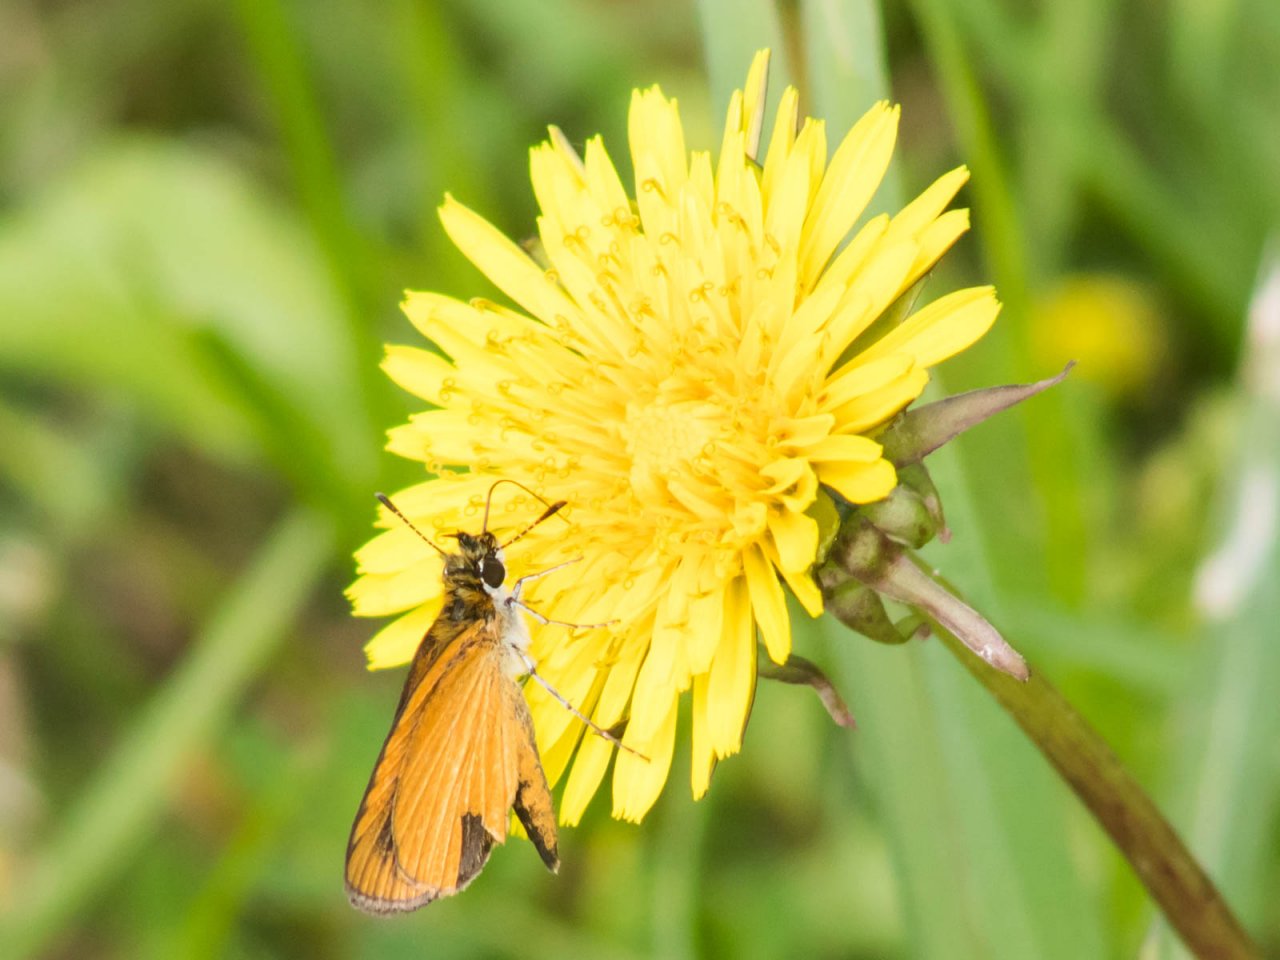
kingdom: Animalia
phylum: Arthropoda
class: Insecta
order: Lepidoptera
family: Hesperiidae
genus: Ancyloxypha
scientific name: Ancyloxypha numitor
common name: Least Skipper
